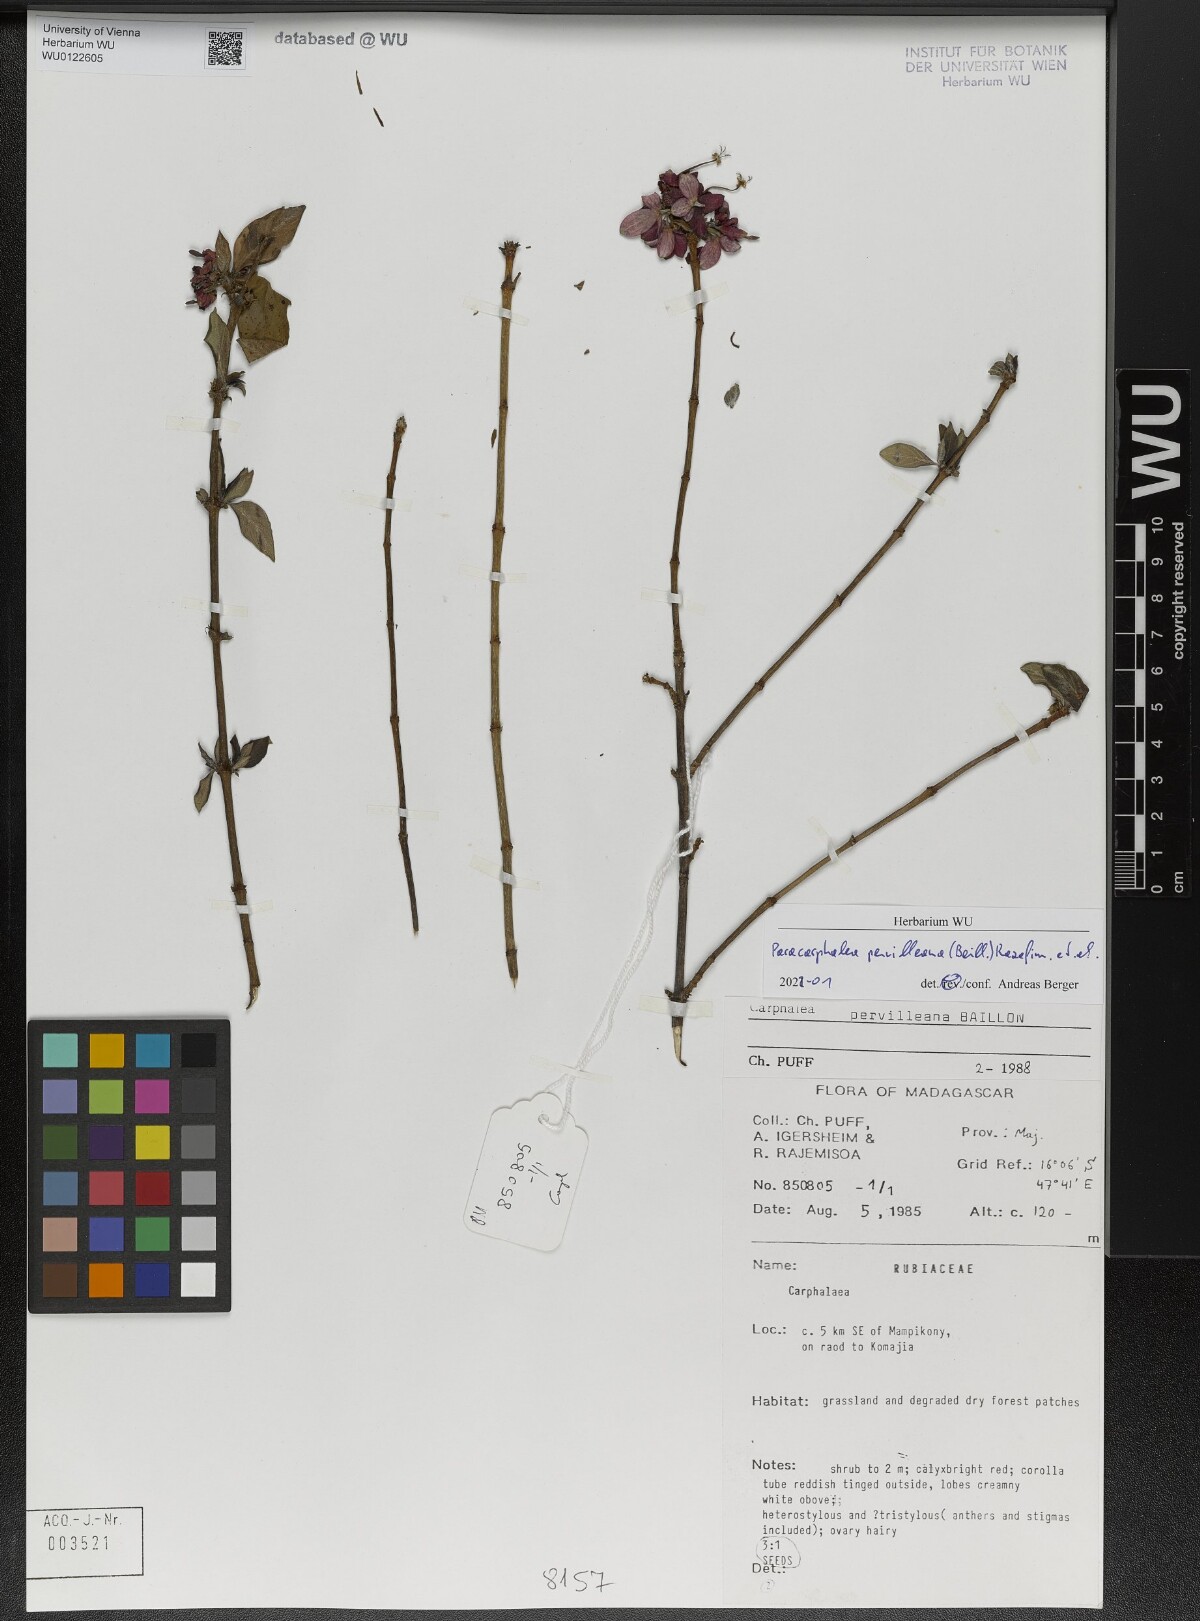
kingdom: Plantae
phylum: Tracheophyta
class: Magnoliopsida
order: Gentianales
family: Rubiaceae
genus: Paracarphalea
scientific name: Paracarphalea pervilleana
